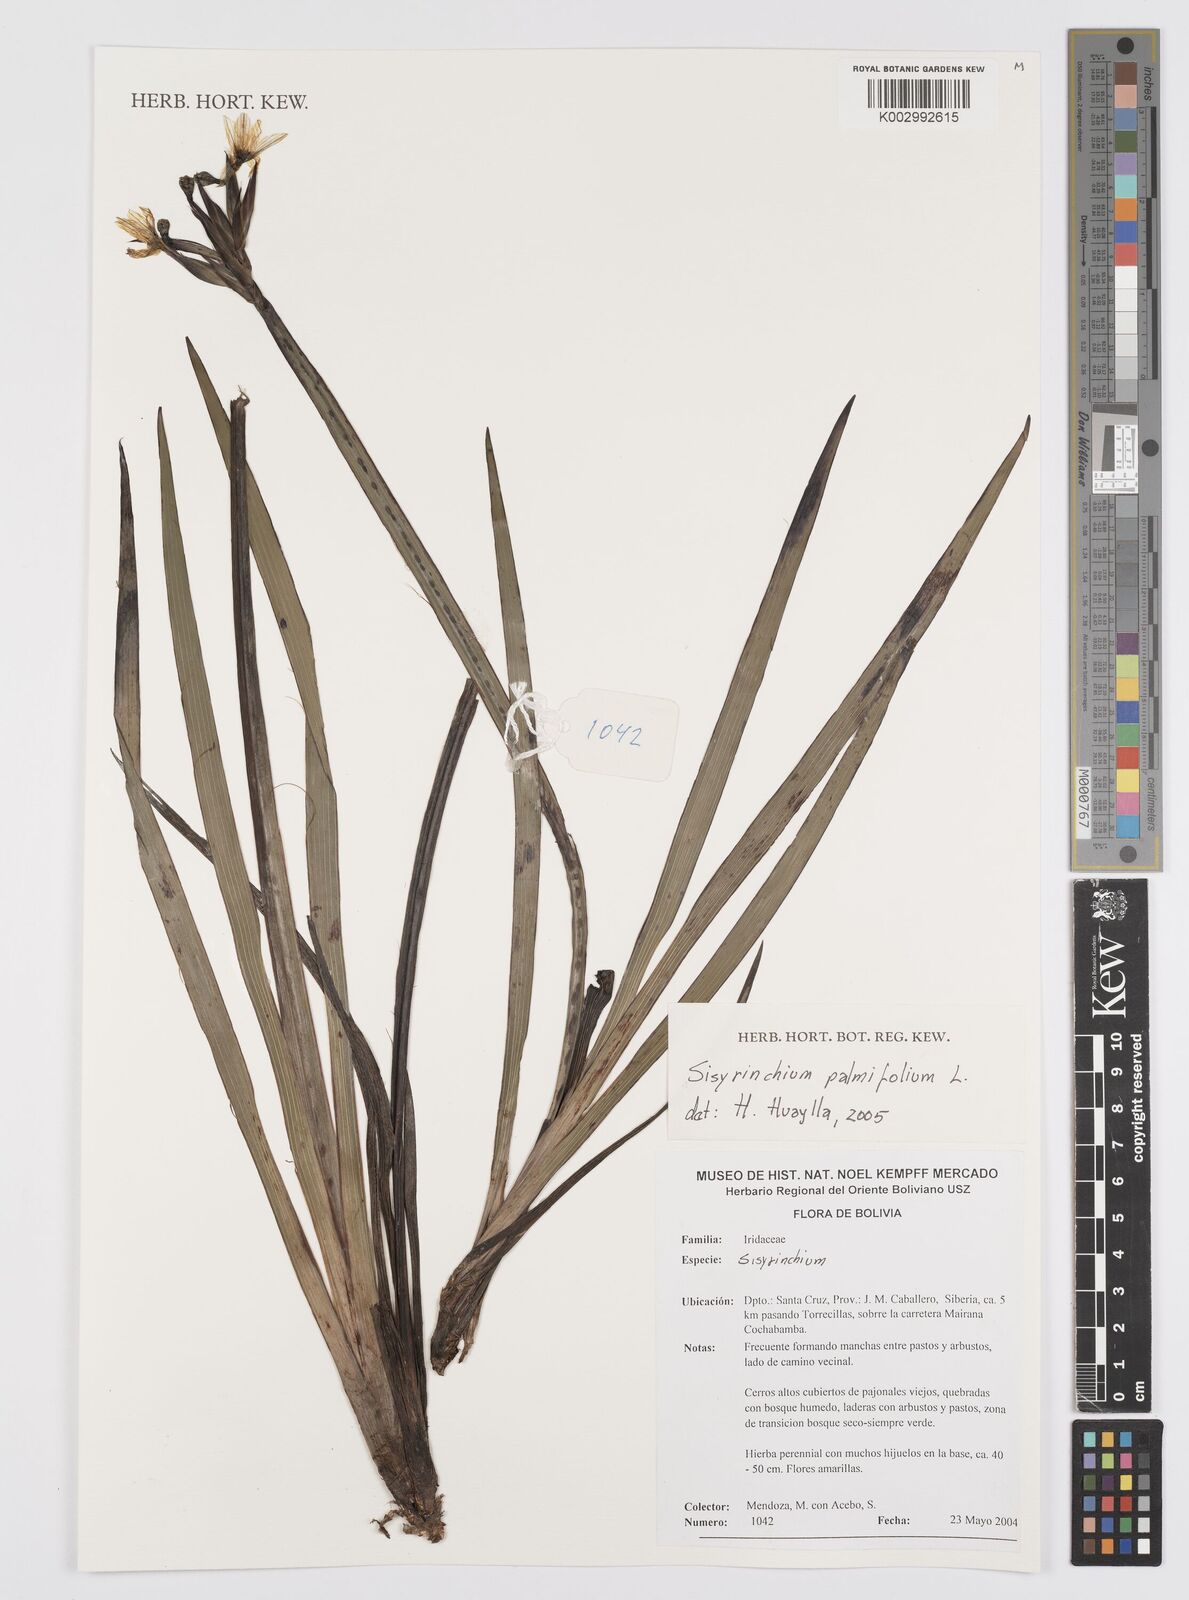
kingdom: Plantae
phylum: Tracheophyta
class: Liliopsida
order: Asparagales
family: Iridaceae
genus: Sisyrinchium
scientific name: Sisyrinchium palmifolium
